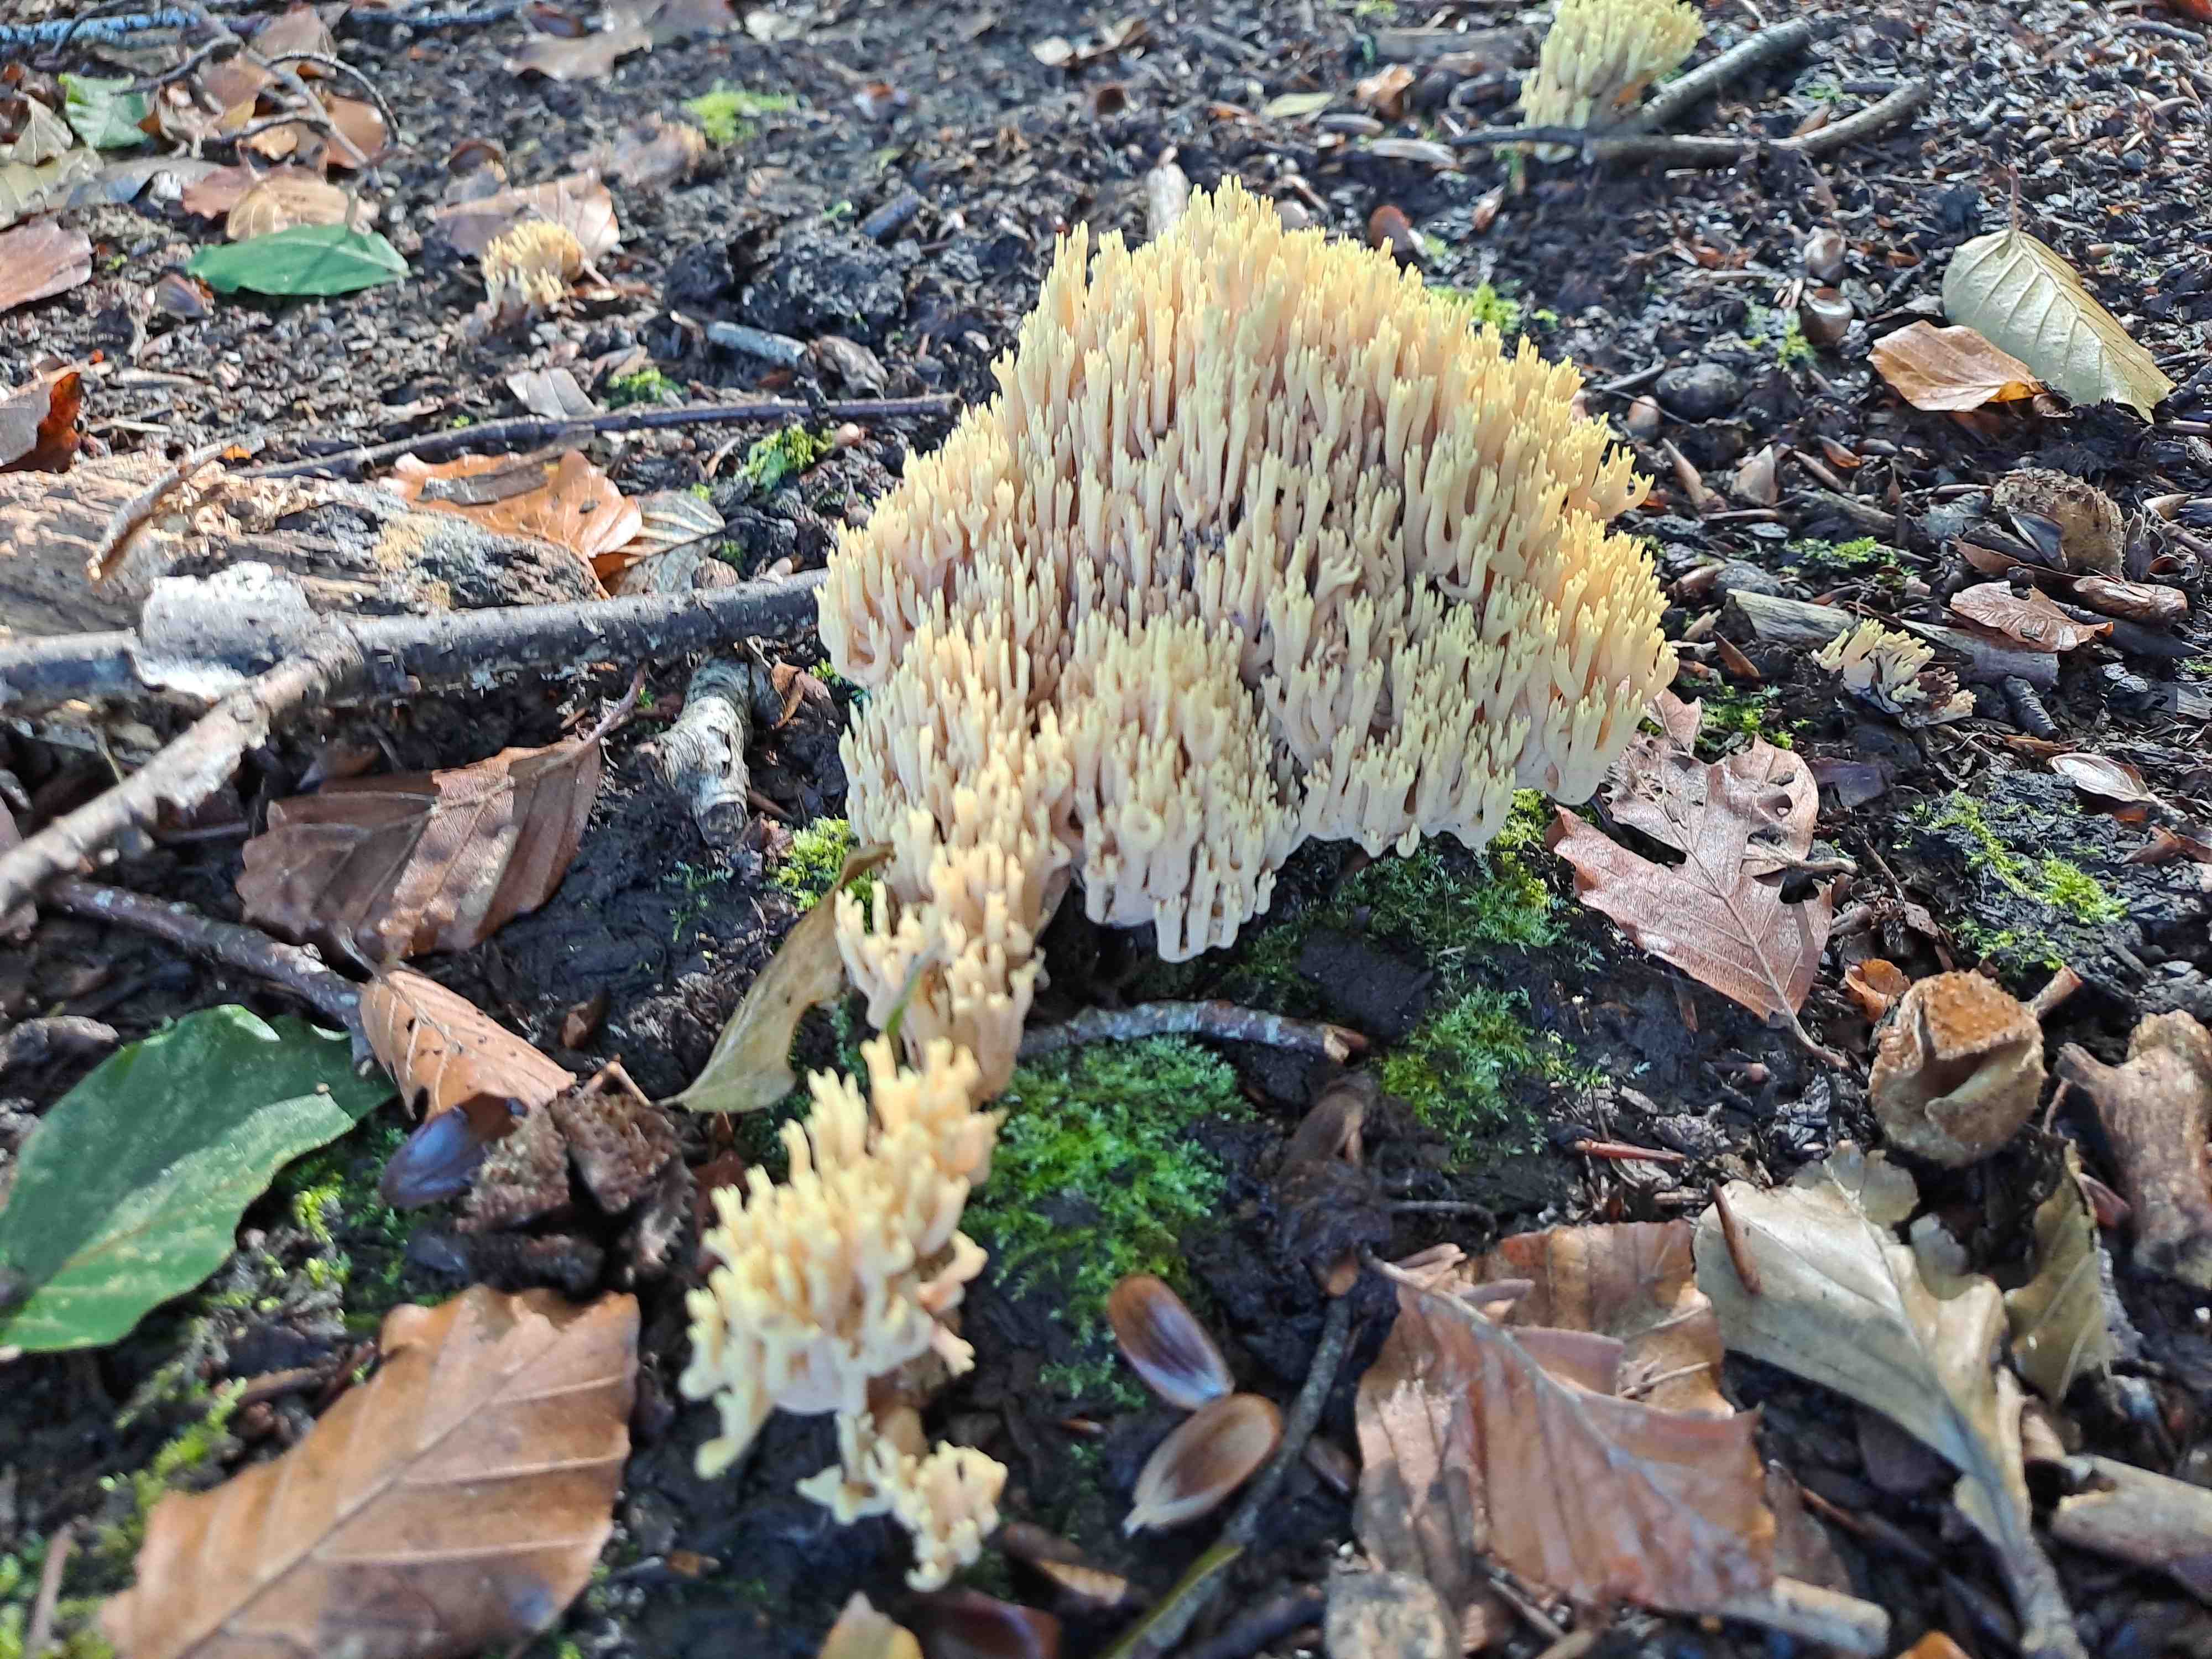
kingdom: Fungi
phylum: Basidiomycota
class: Agaricomycetes
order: Gomphales
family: Gomphaceae
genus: Ramaria
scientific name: Ramaria stricta
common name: rank koralsvamp
